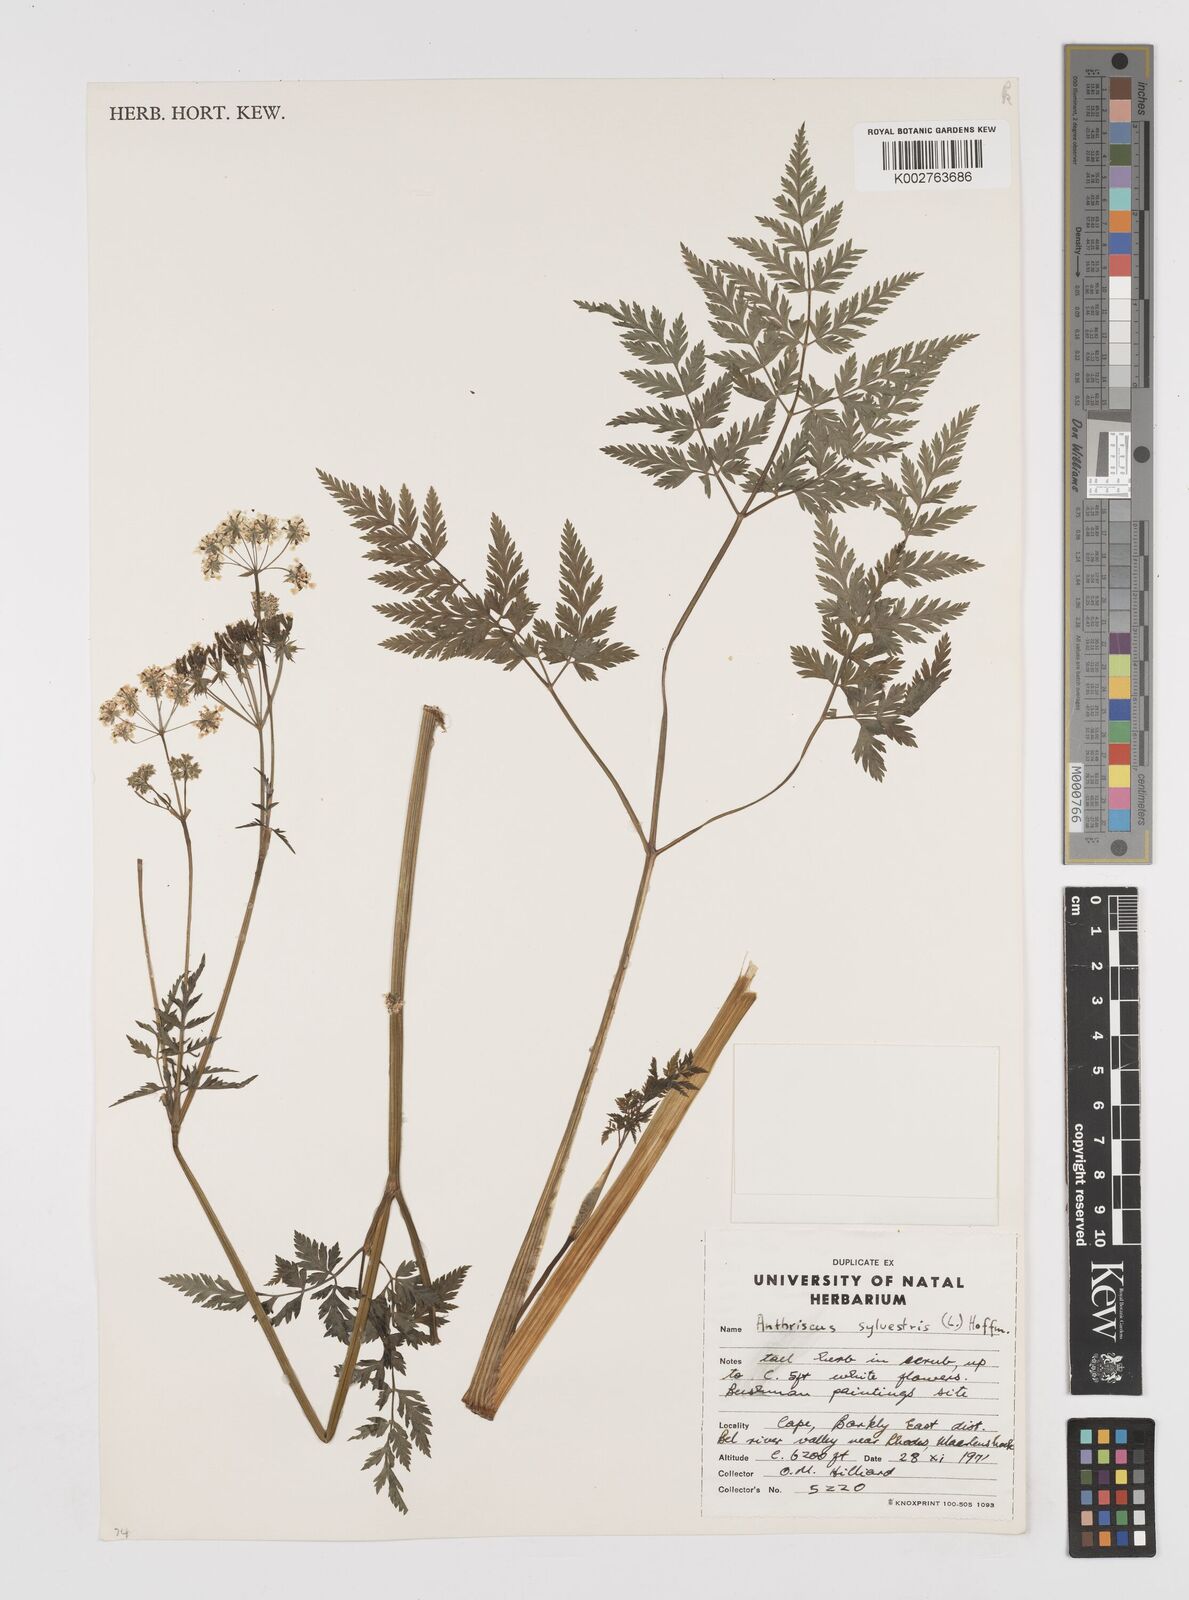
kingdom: Plantae
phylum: Tracheophyta
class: Magnoliopsida
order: Apiales
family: Apiaceae
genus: Anthriscus
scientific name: Anthriscus sylvestris
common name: Cow parsley
